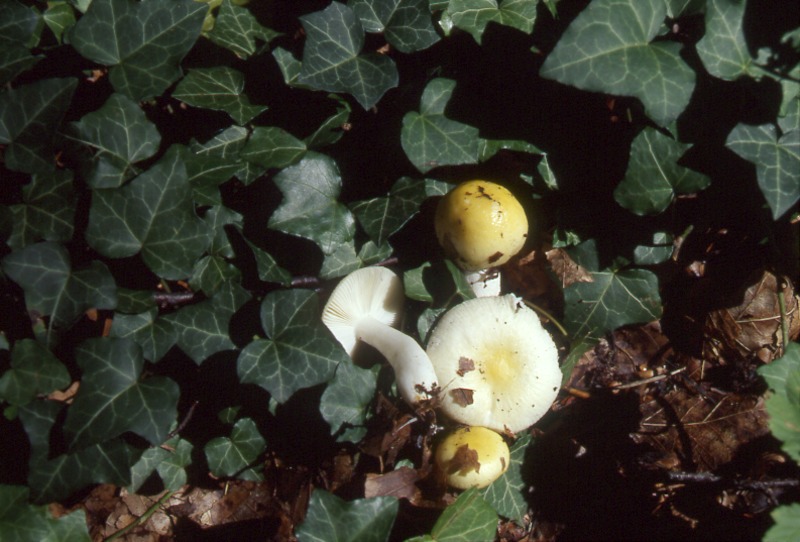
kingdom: Fungi
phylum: Basidiomycota
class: Agaricomycetes
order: Russulales
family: Russulaceae
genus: Russula
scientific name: Russula solaris
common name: Sunny brittlegill
